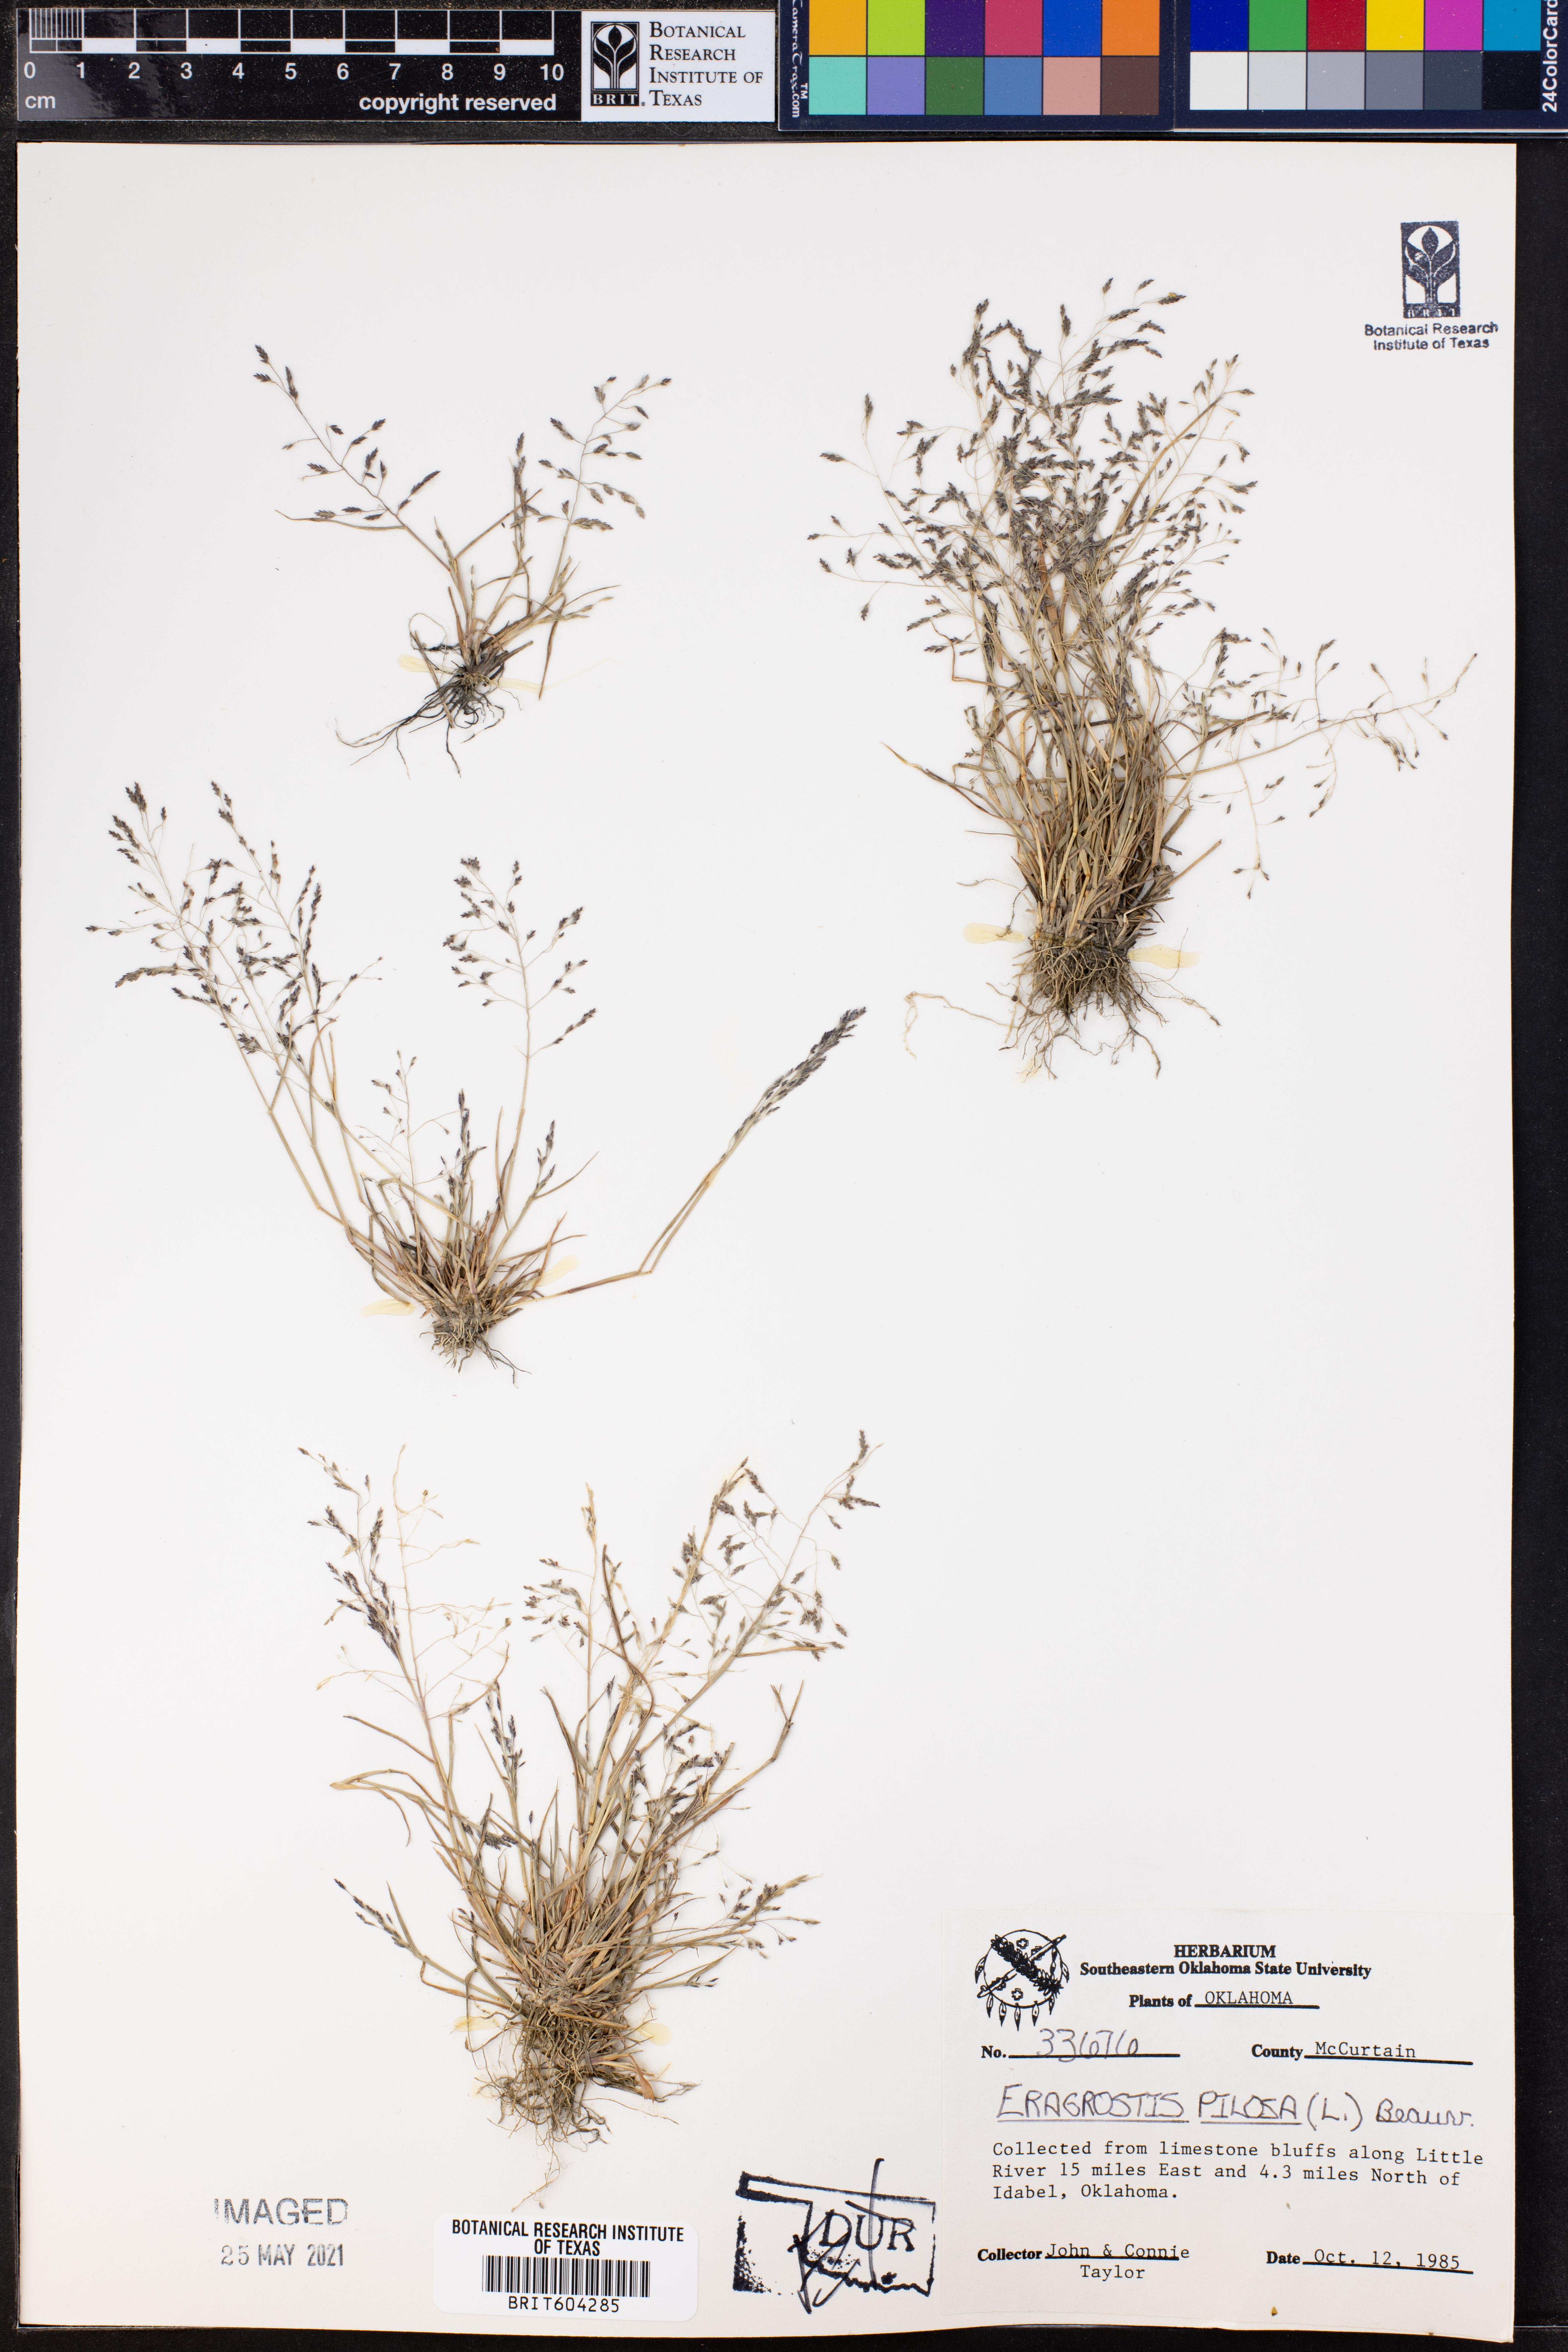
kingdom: Plantae
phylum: Tracheophyta
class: Liliopsida
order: Poales
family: Poaceae
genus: Eragrostis
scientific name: Eragrostis pilosa
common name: Indian lovegrass
